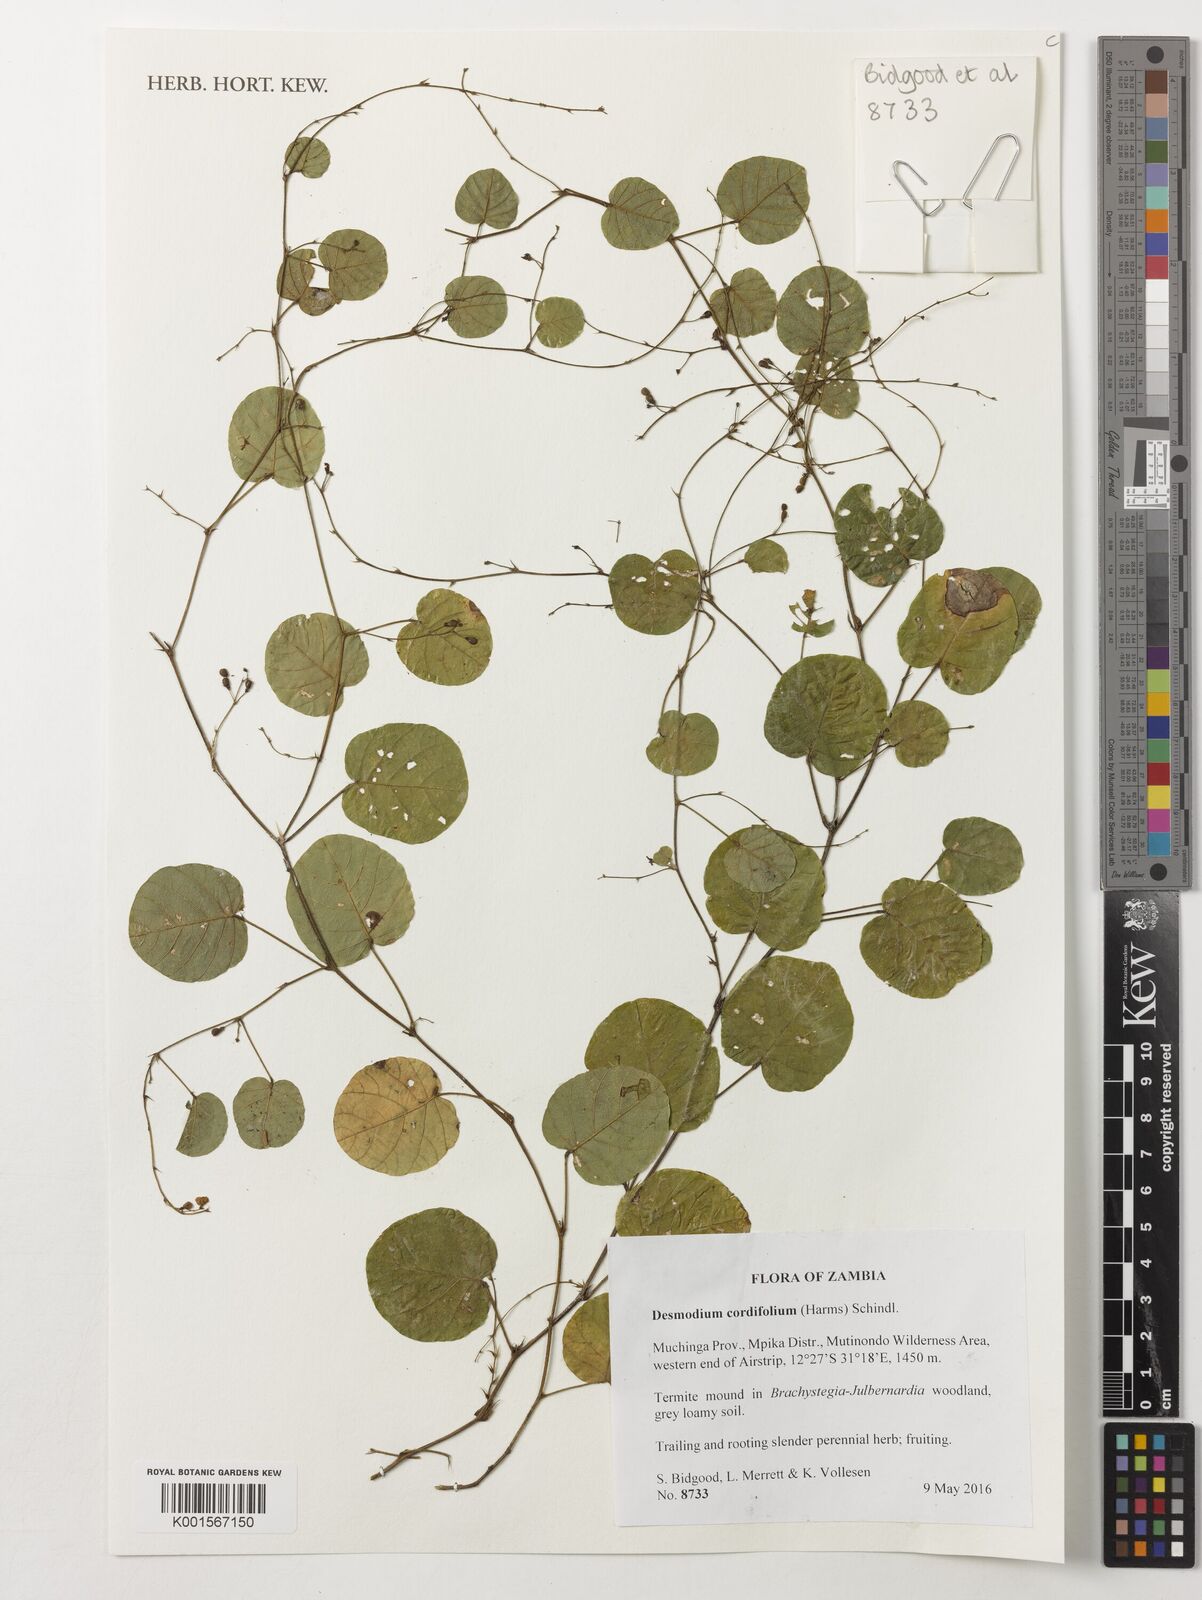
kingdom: Plantae
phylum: Tracheophyta
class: Magnoliopsida
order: Fabales
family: Fabaceae
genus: Grona
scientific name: Grona cordifolia
